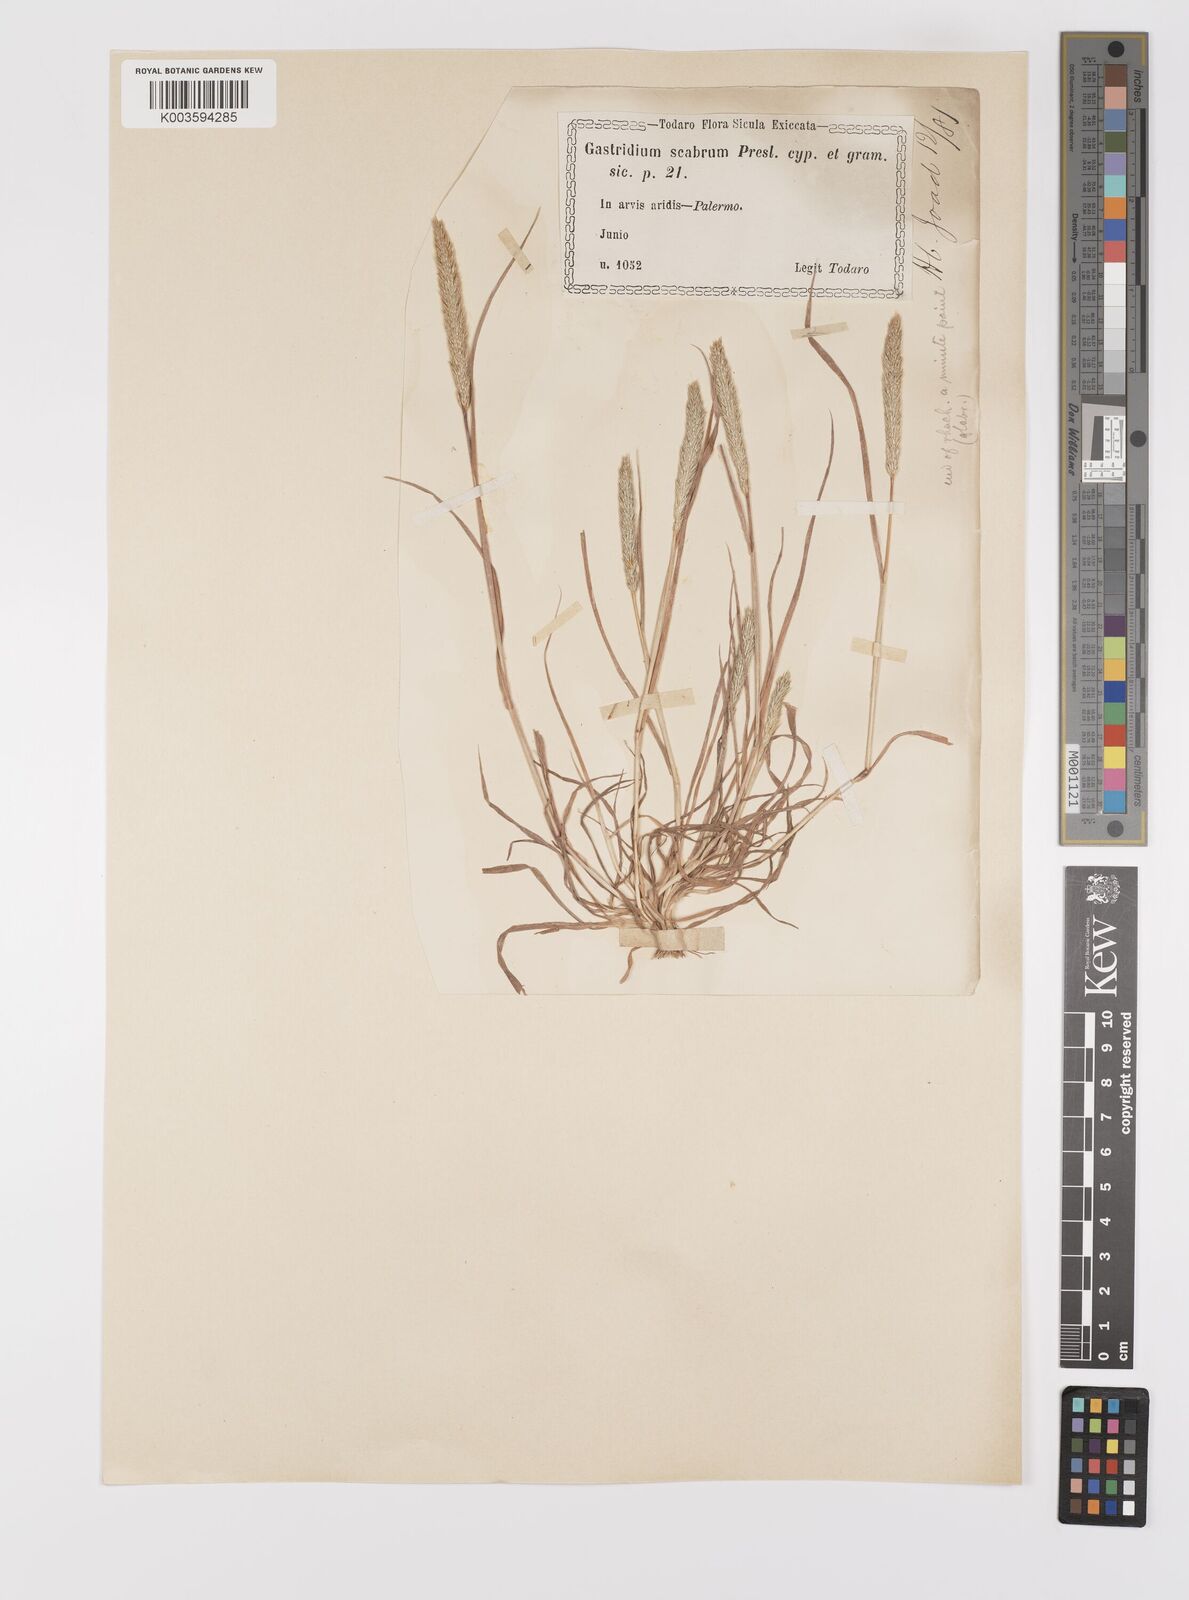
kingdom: Plantae
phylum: Tracheophyta
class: Liliopsida
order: Poales
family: Poaceae
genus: Gastridium
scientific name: Gastridium ventricosum
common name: Nit-grass
